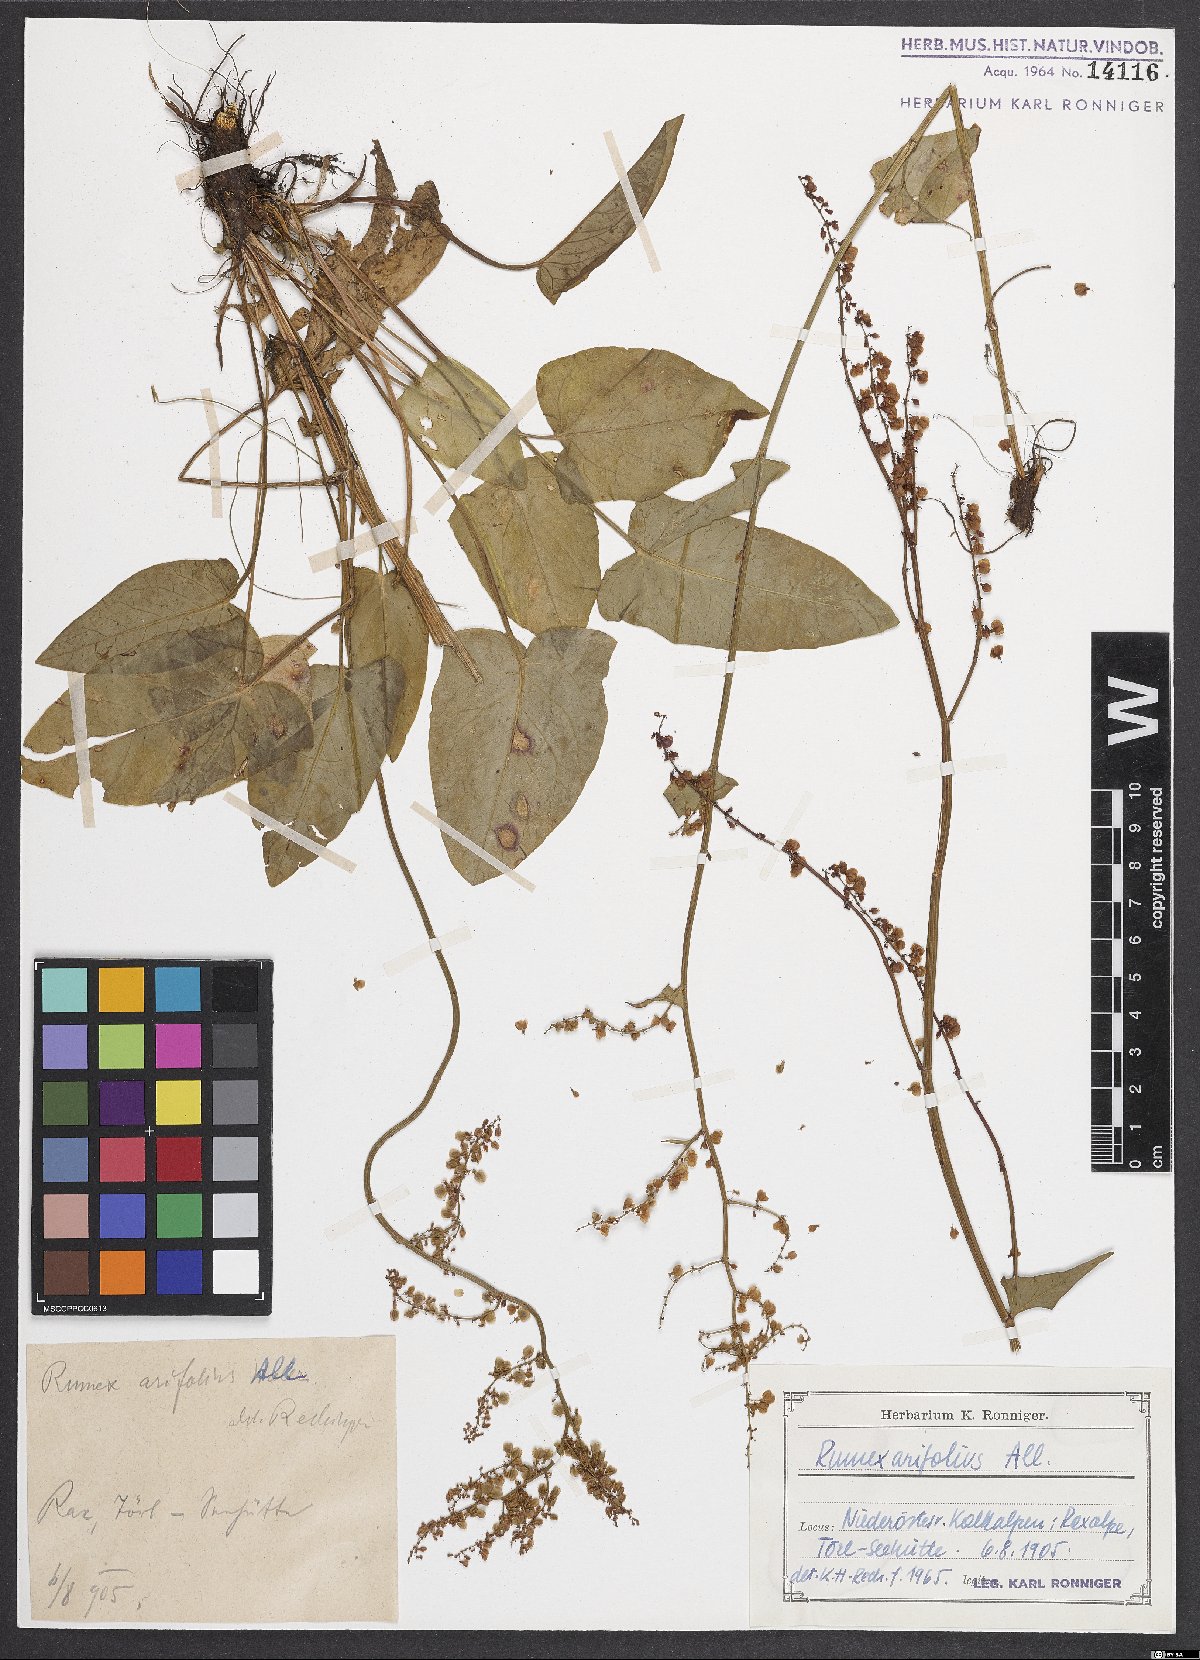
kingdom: Plantae
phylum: Tracheophyta
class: Magnoliopsida
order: Caryophyllales
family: Polygonaceae
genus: Rumex
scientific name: Rumex arifolius
